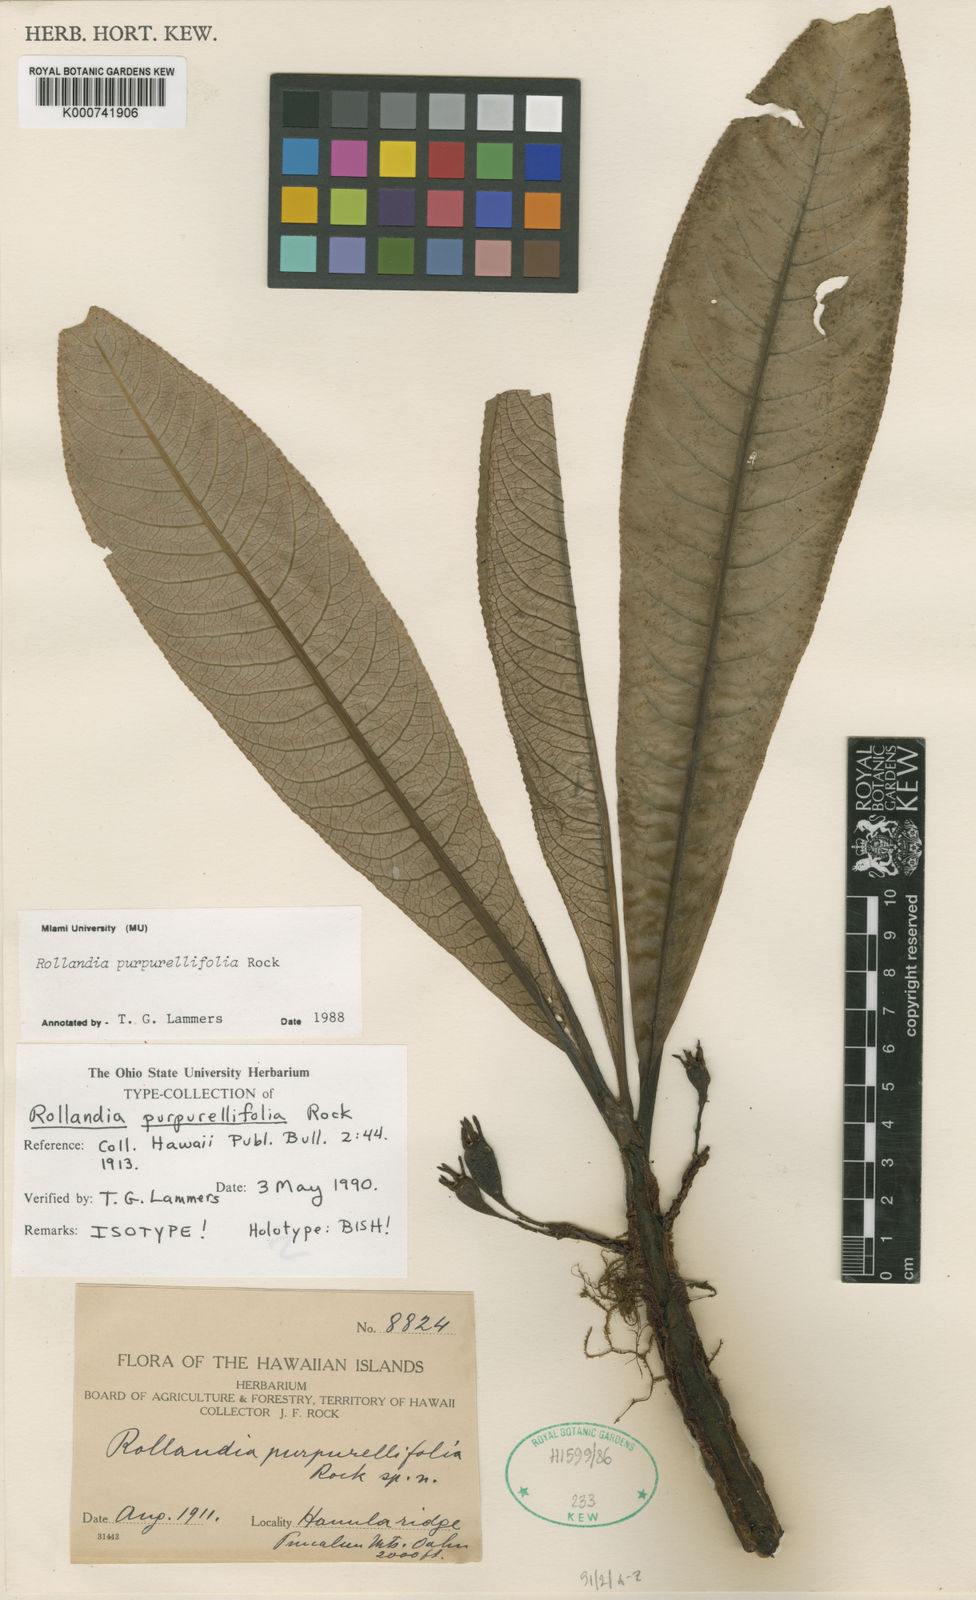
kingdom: Plantae
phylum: Tracheophyta
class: Magnoliopsida
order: Asterales
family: Campanulaceae
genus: Cyanea
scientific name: Cyanea purpurellifolia
